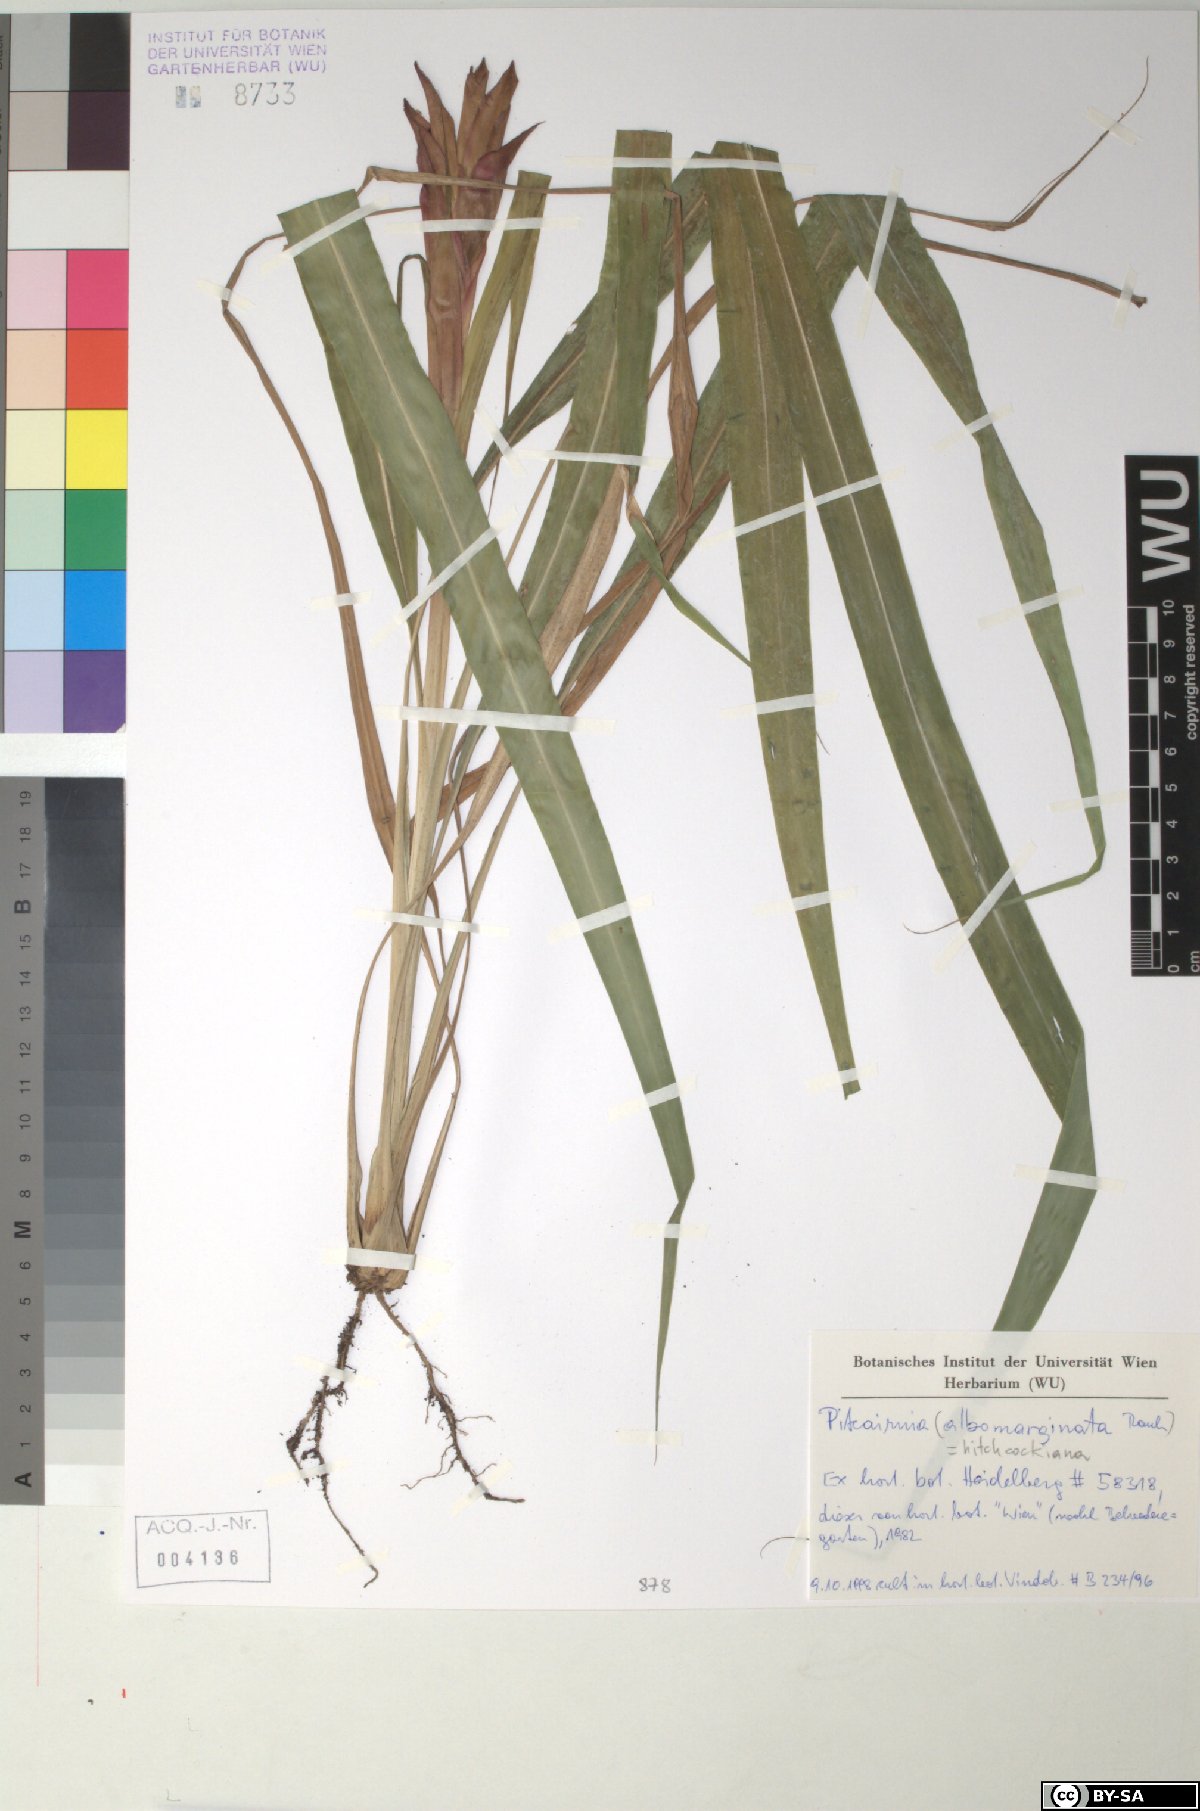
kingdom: Plantae
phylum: Tracheophyta
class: Liliopsida
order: Poales
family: Bromeliaceae
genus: Pitcairnia
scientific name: Pitcairnia
